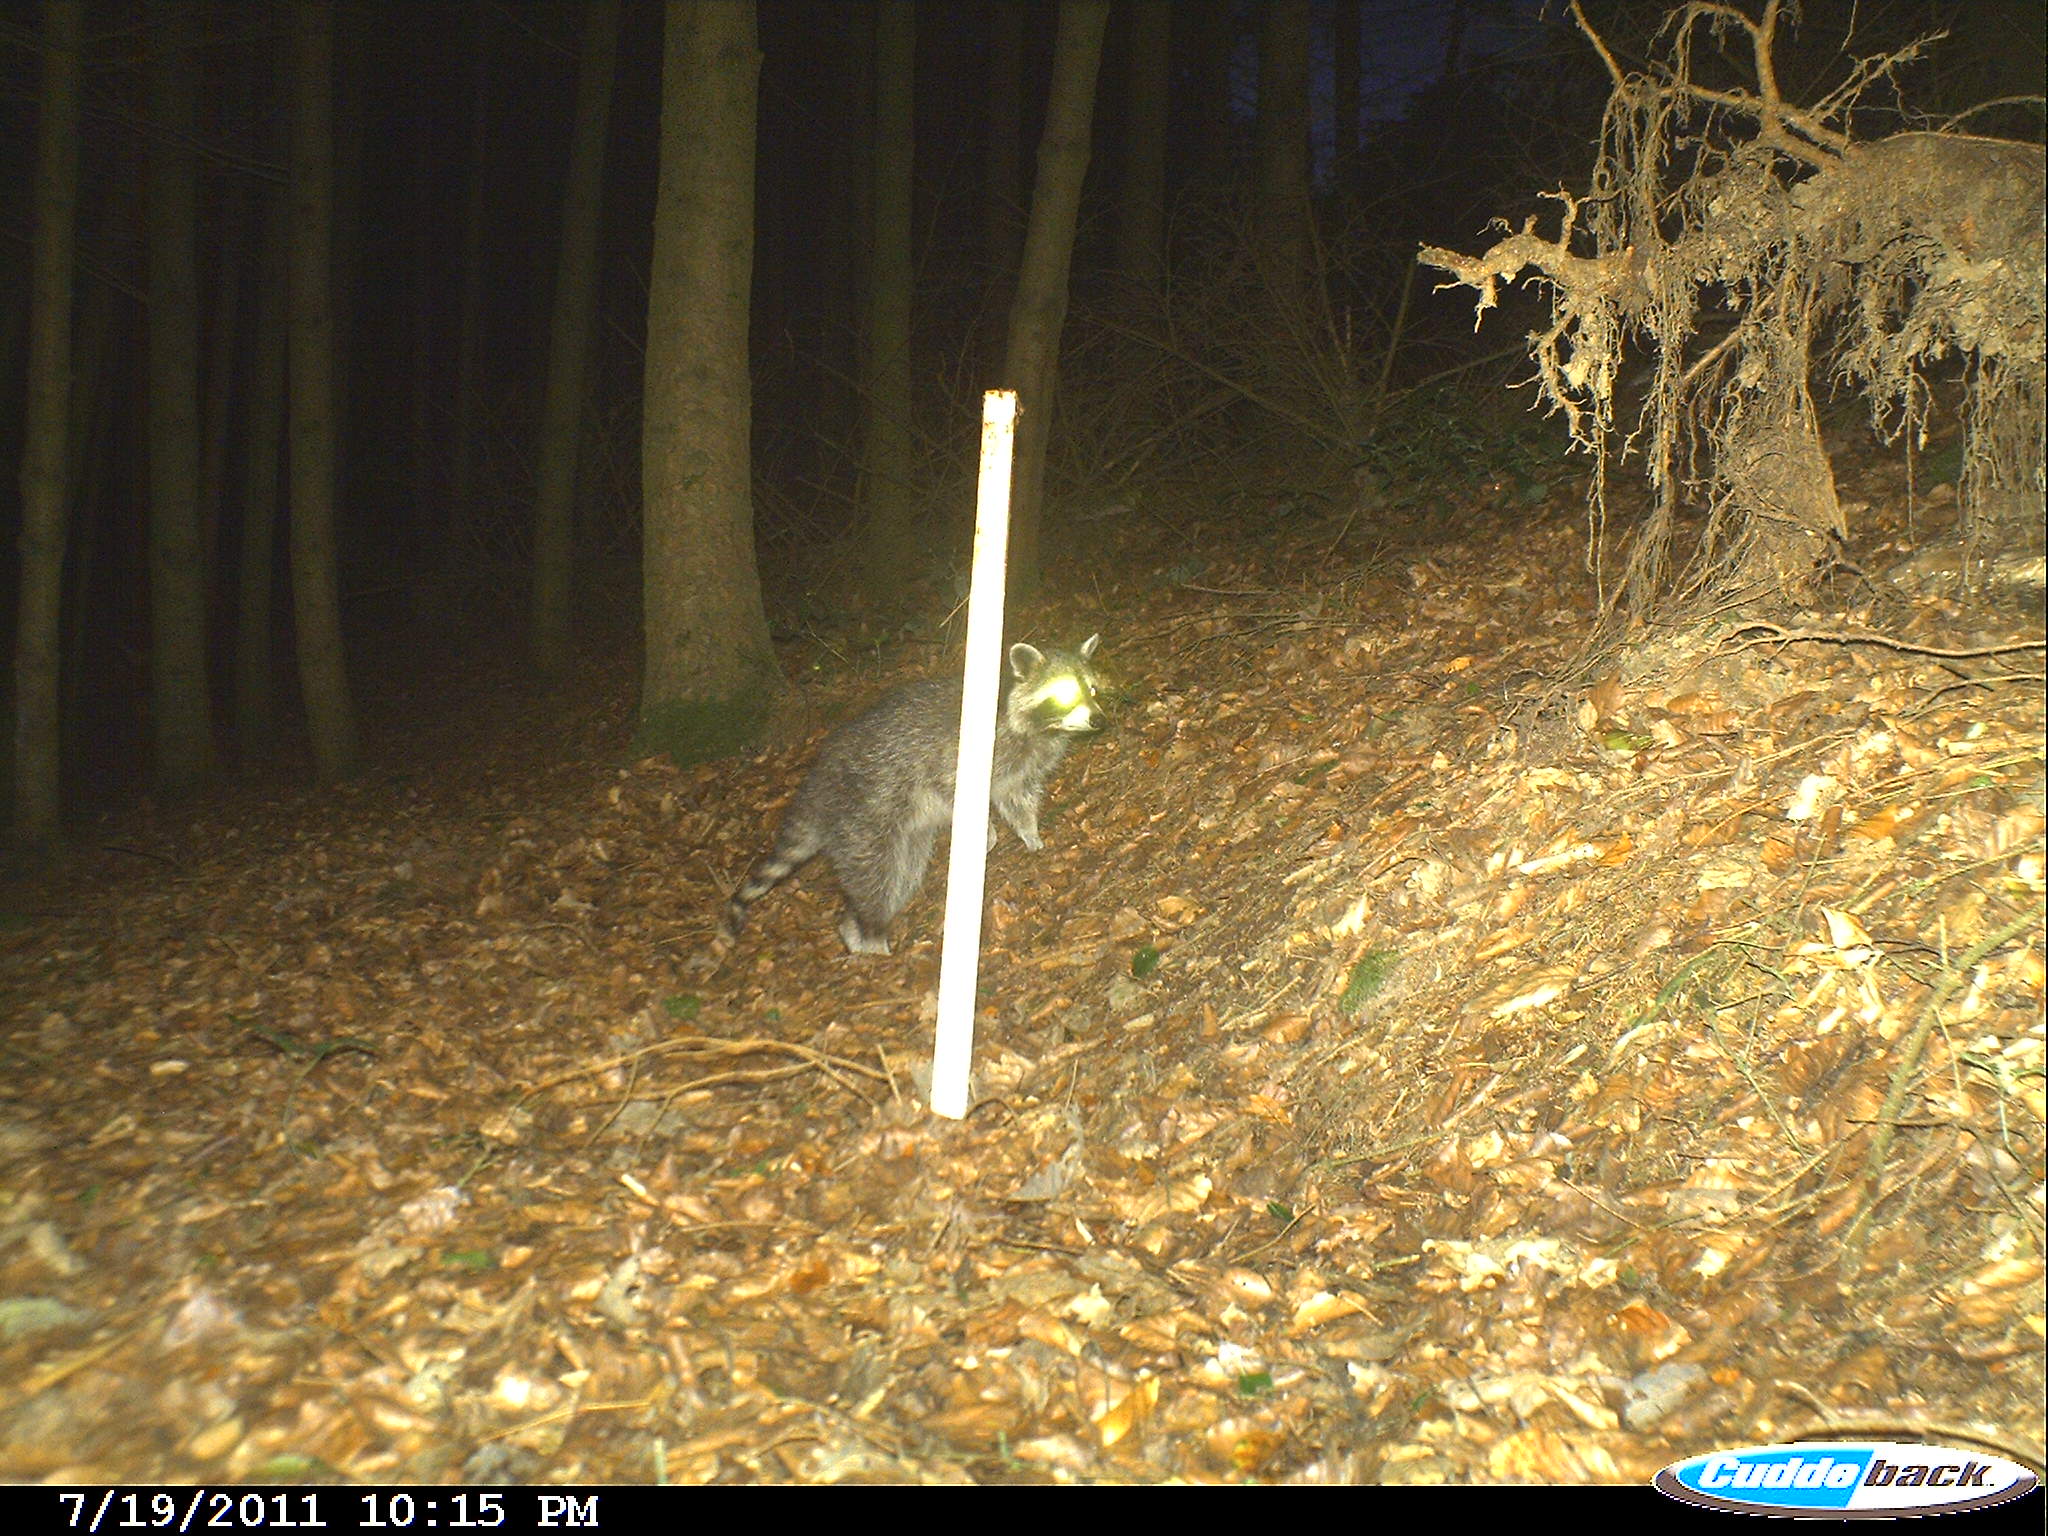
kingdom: Animalia
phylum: Chordata
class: Mammalia
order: Carnivora
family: Procyonidae
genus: Procyon
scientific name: Procyon lotor
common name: Raccoon
